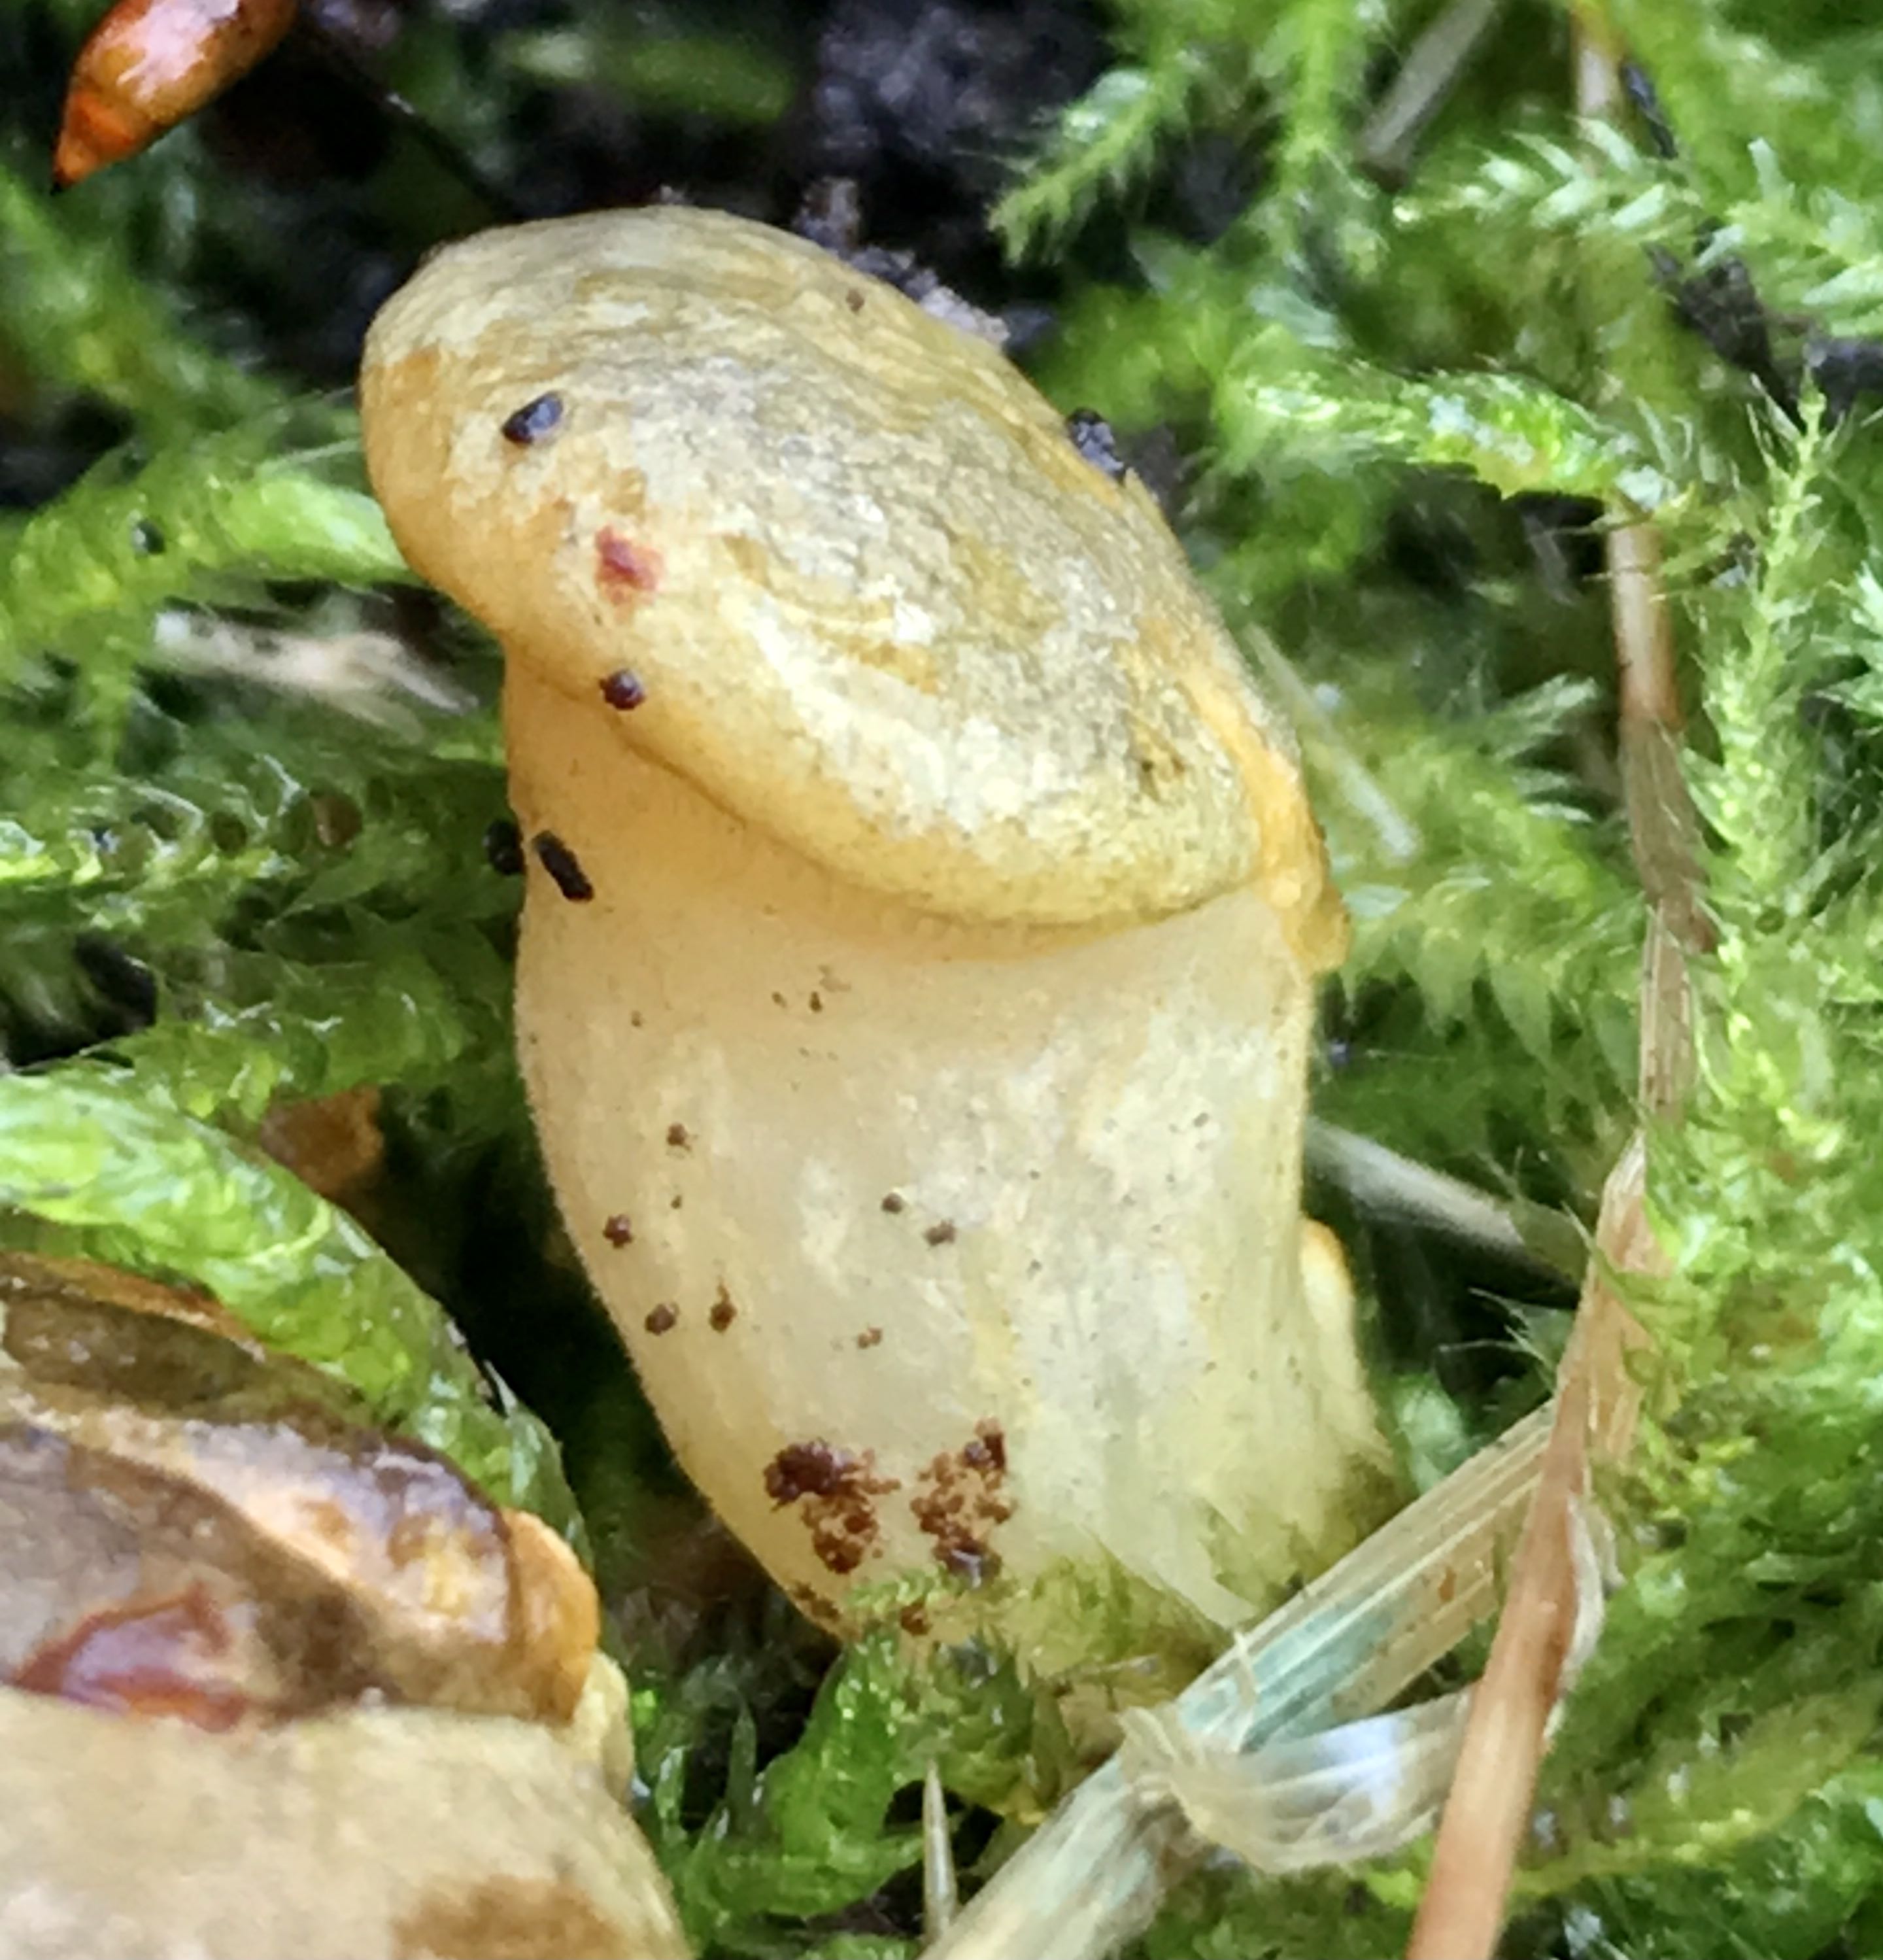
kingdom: Fungi
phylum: Basidiomycota
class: Agaricomycetes
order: Agaricales
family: Sarcomyxaceae
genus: Sarcomyxa
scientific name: Sarcomyxa serotina
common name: gummihat
